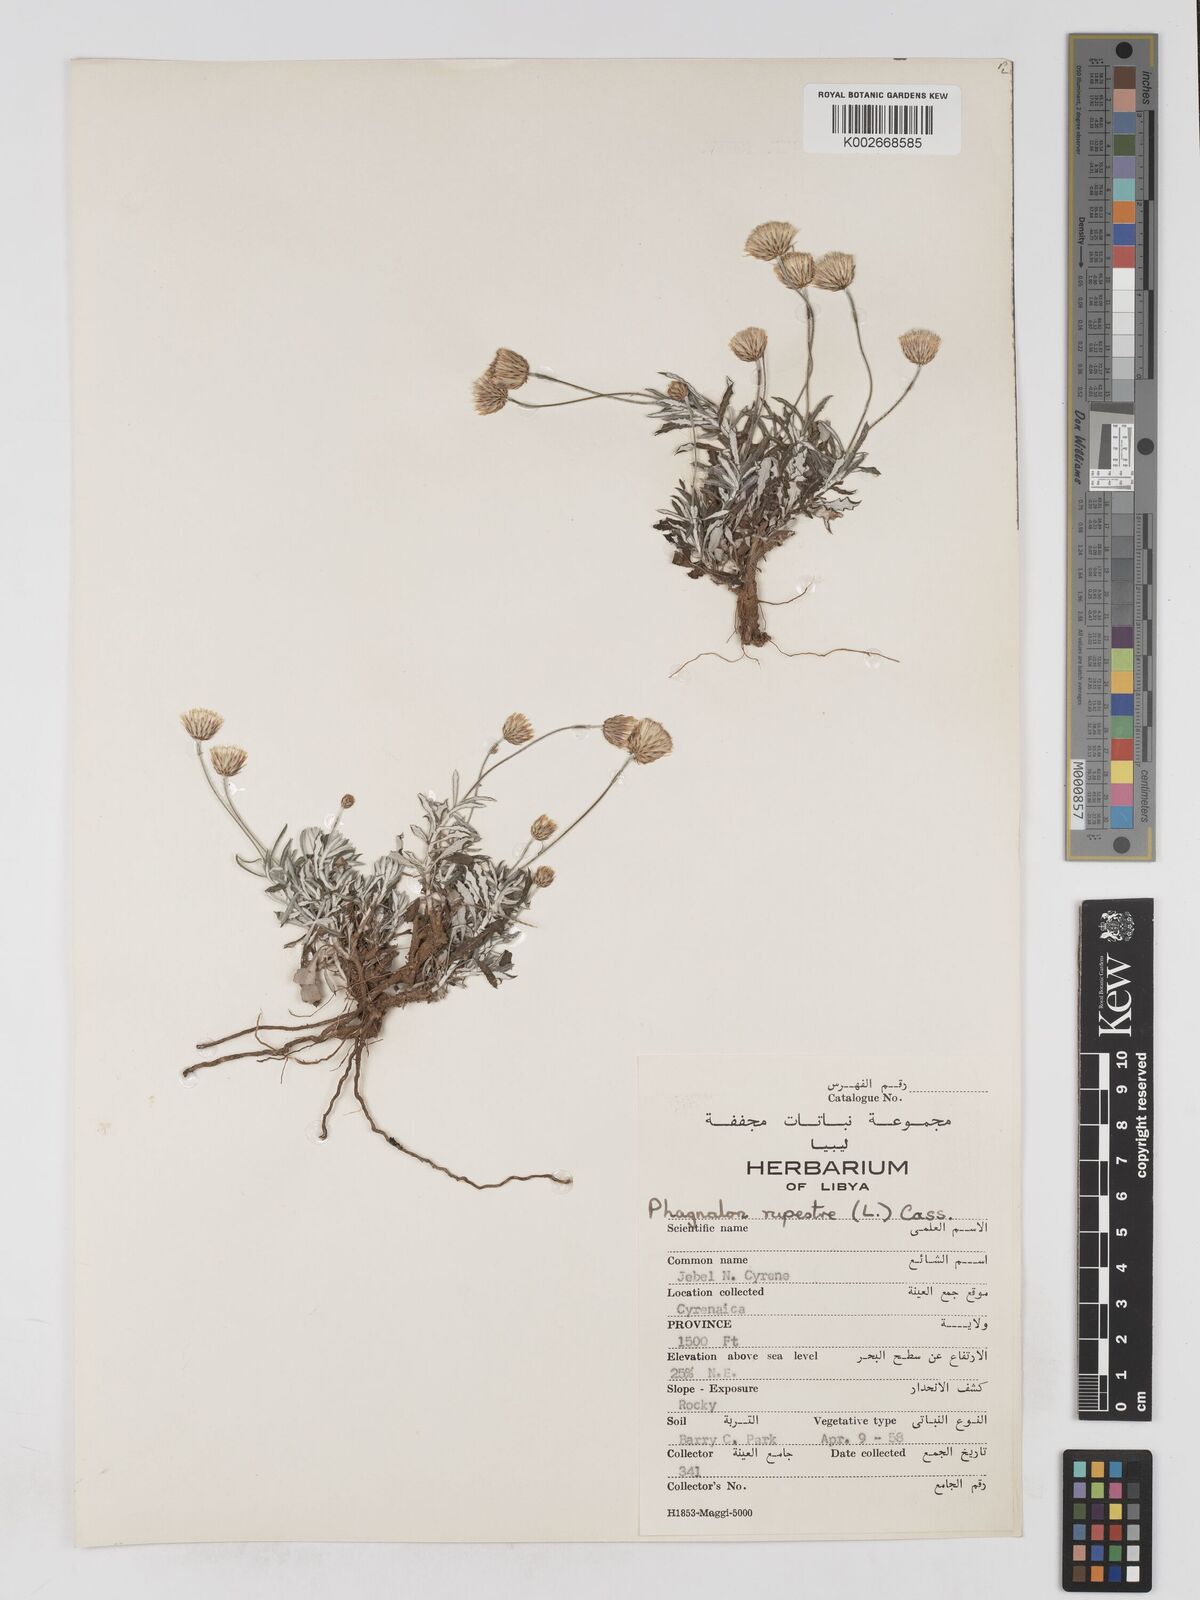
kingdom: Plantae
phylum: Tracheophyta
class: Magnoliopsida
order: Asterales
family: Asteraceae
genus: Phagnalon
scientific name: Phagnalon rupestre
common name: Rock phagnalon
